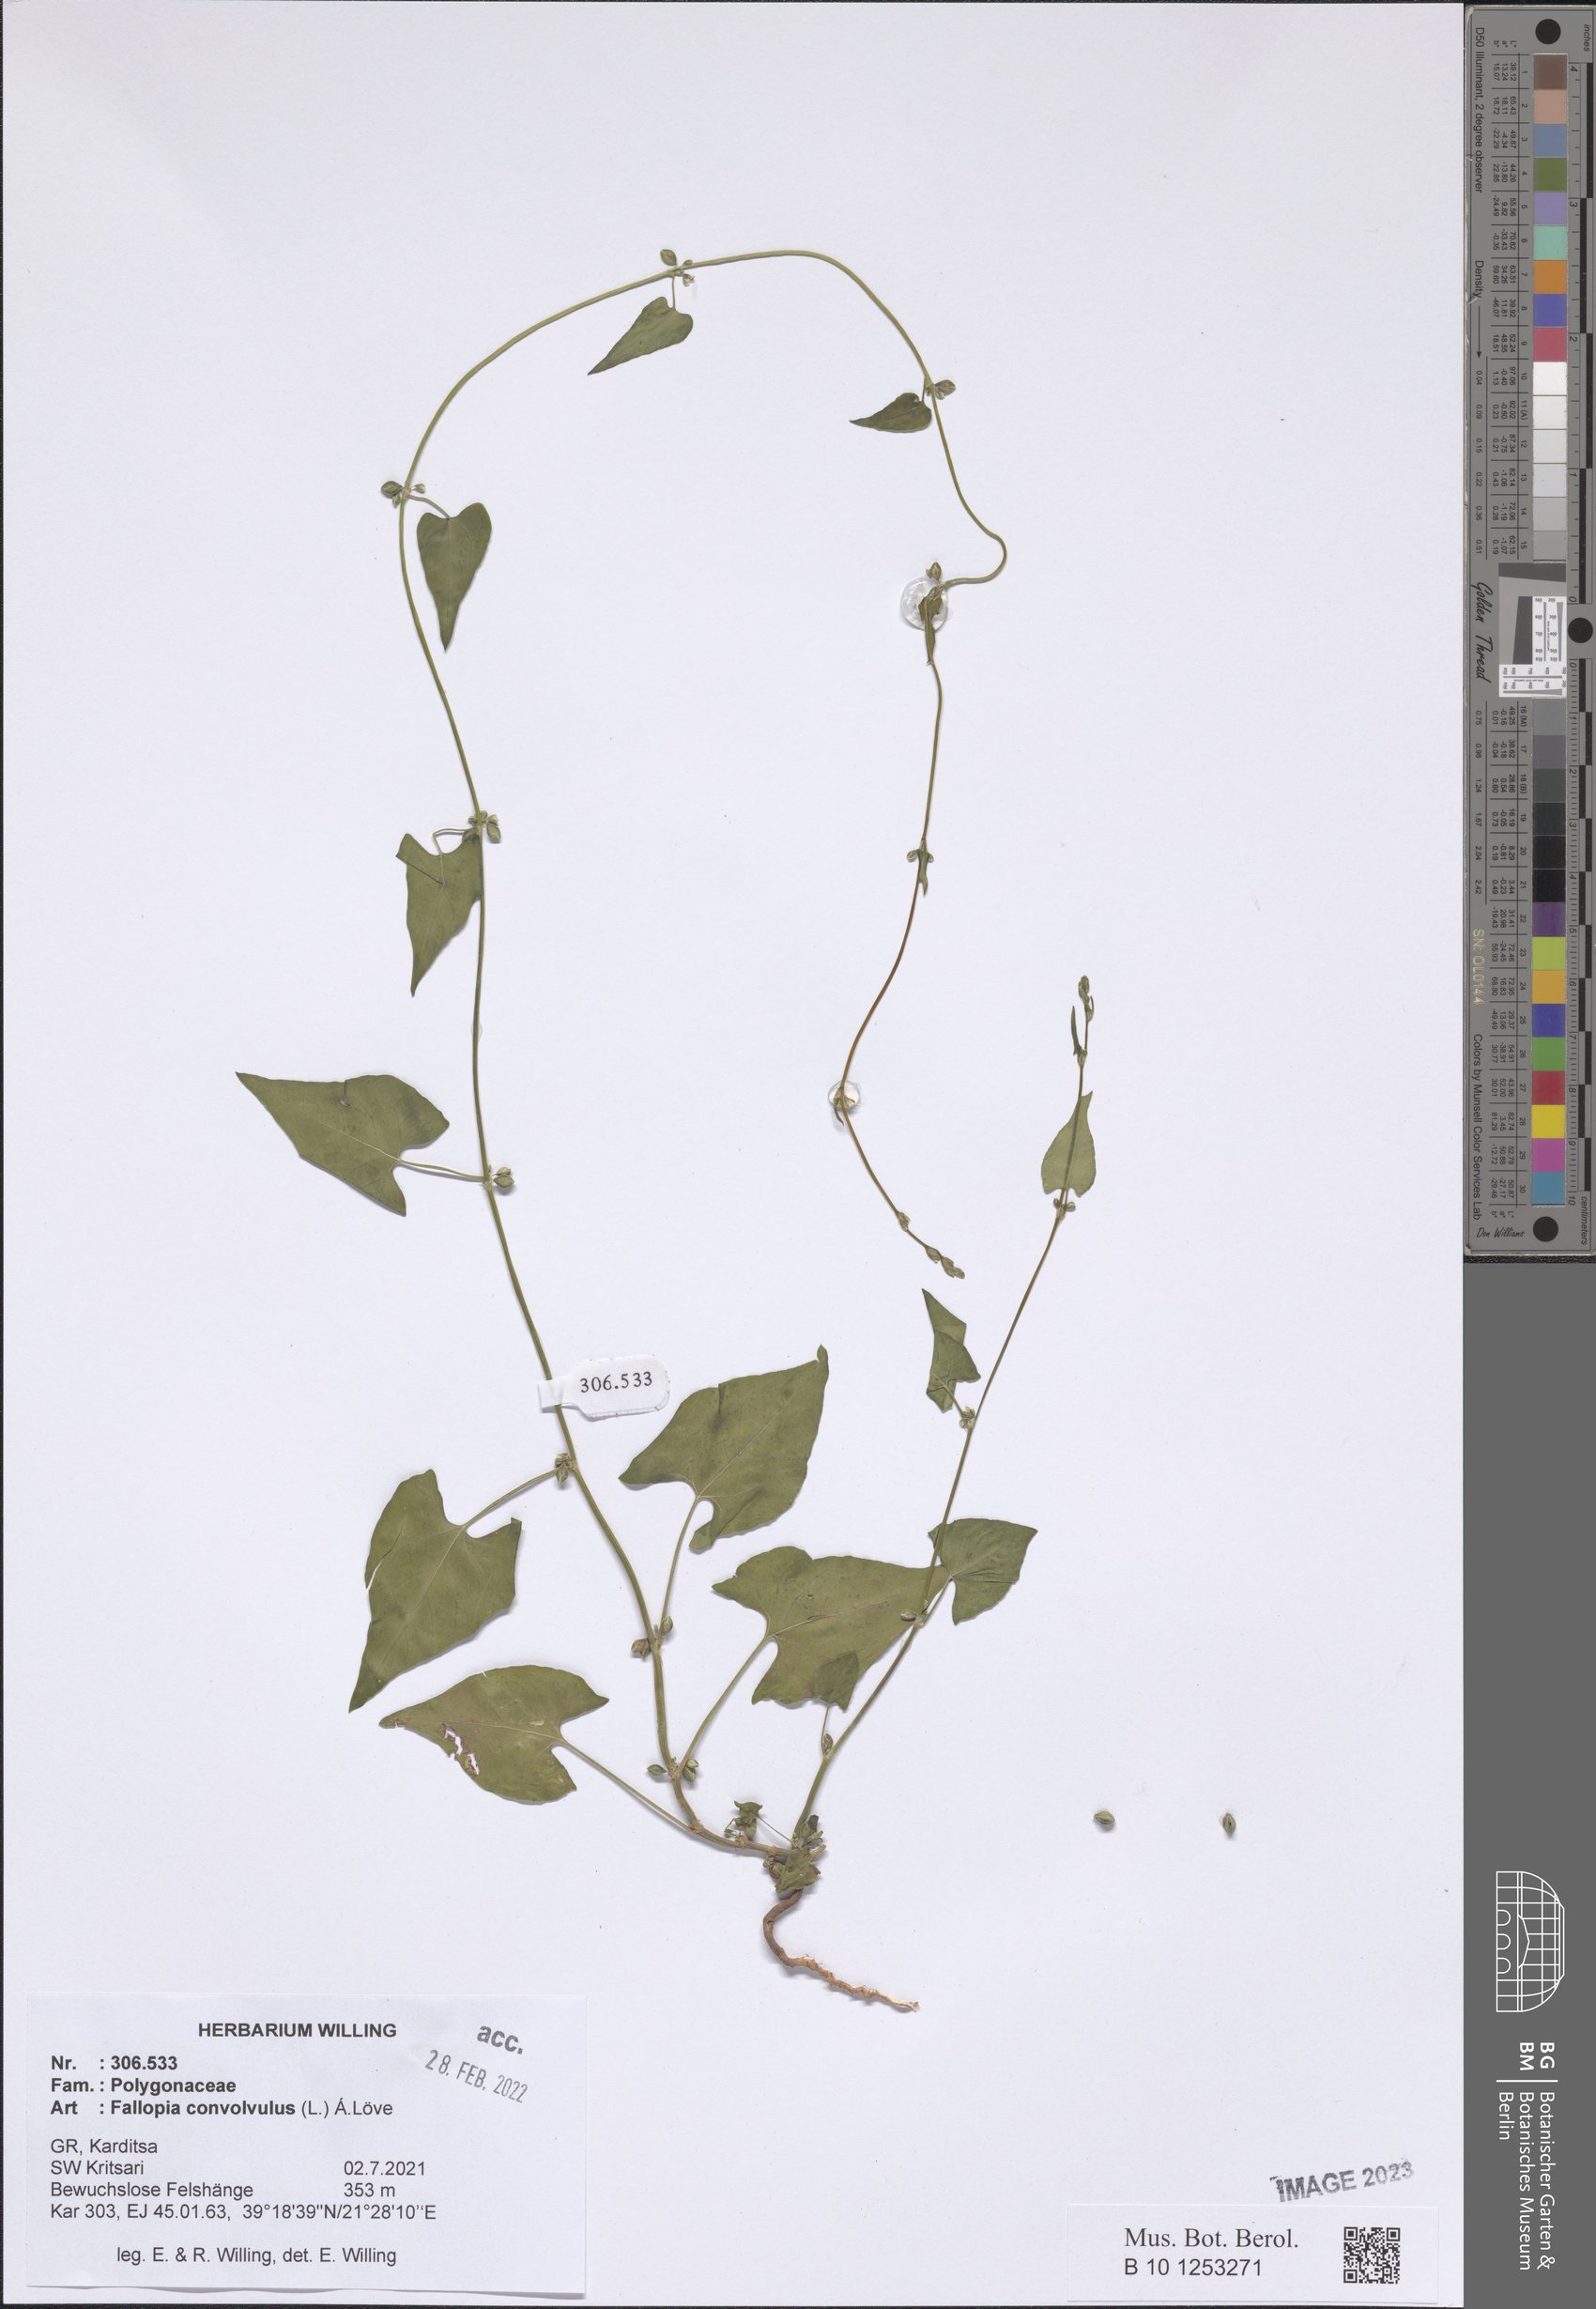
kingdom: Plantae
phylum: Tracheophyta
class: Magnoliopsida
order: Caryophyllales
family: Polygonaceae
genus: Fallopia
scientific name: Fallopia convolvulus
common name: Black bindweed
